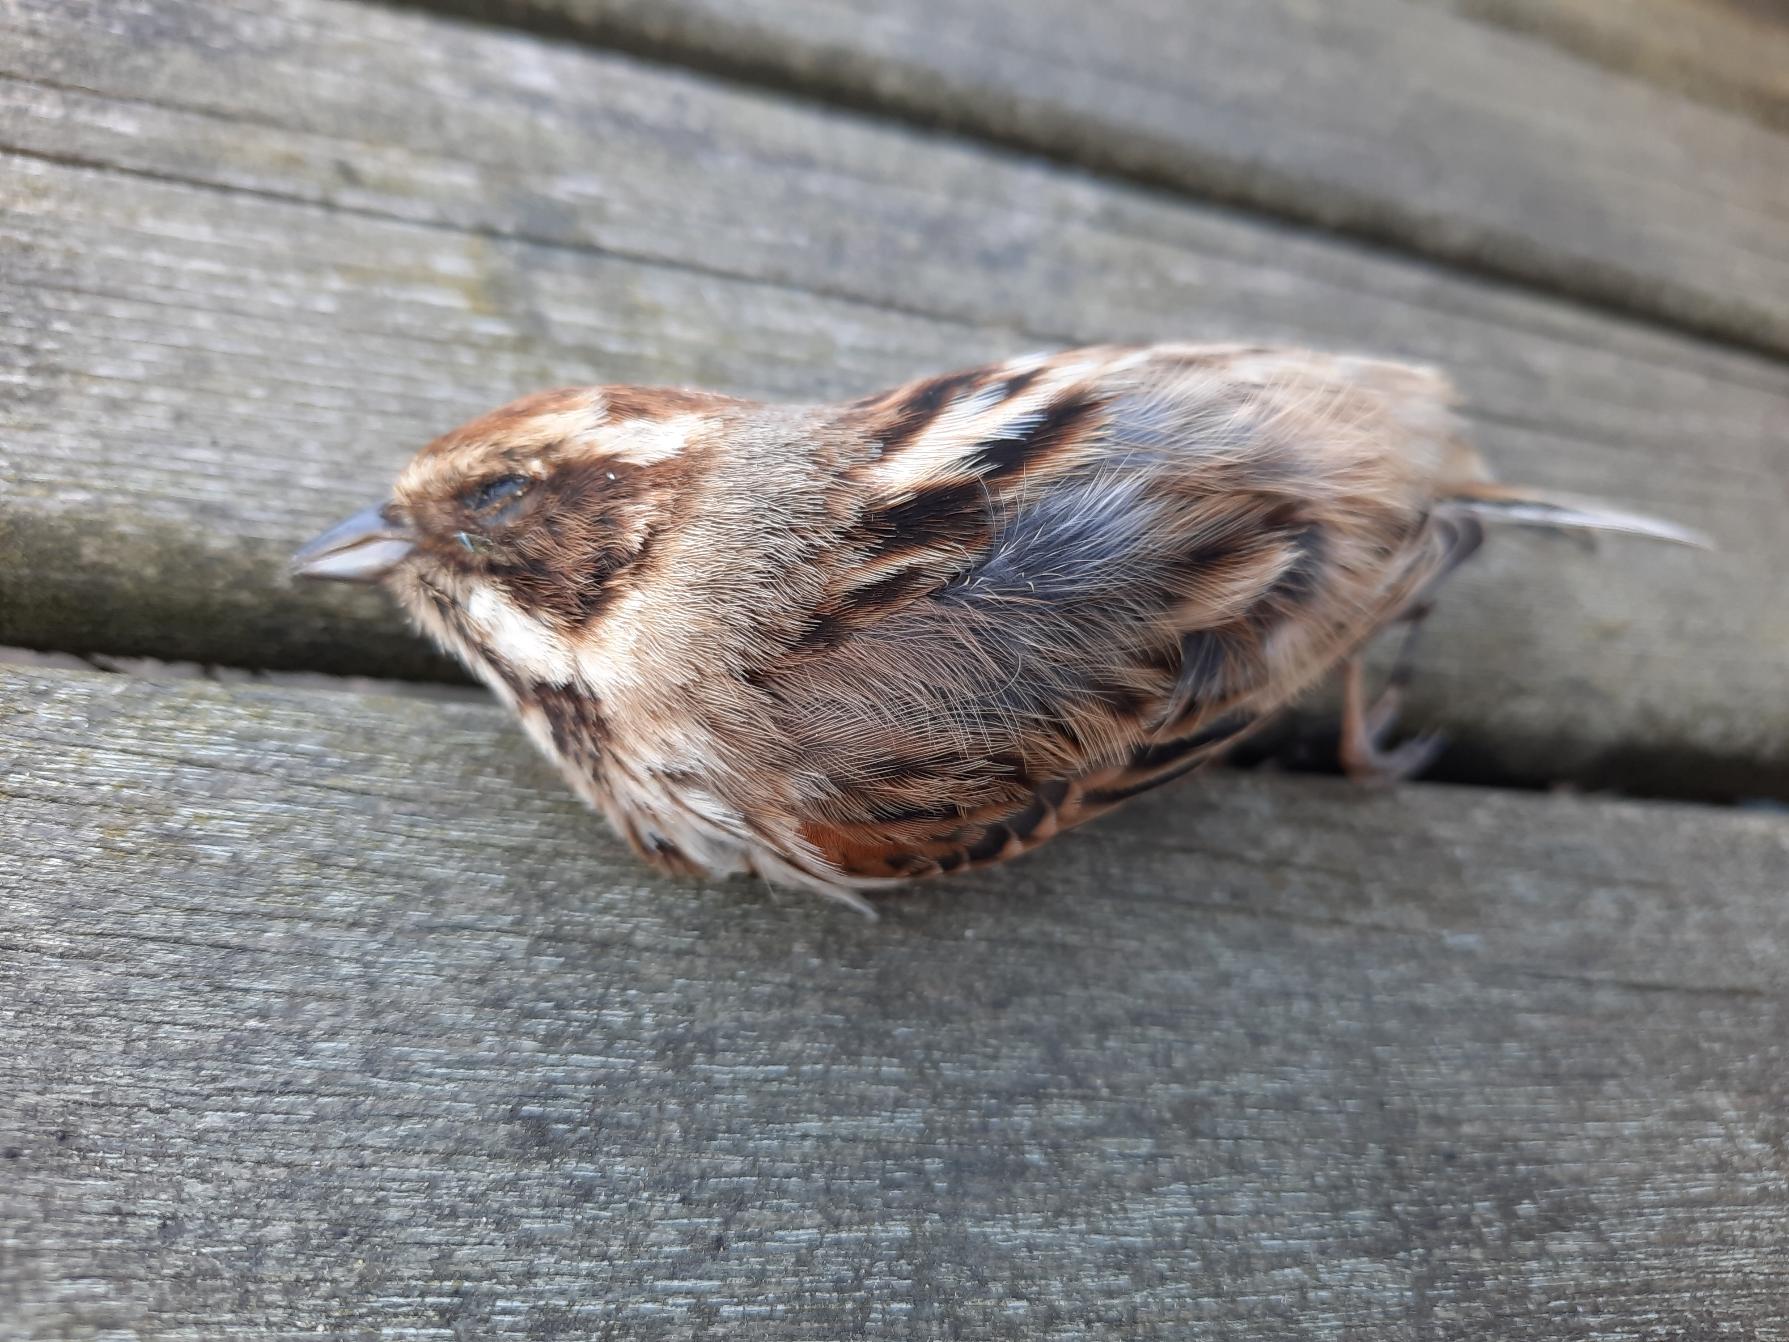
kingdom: Animalia
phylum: Chordata
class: Aves
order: Passeriformes
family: Emberizidae
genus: Emberiza
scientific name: Emberiza schoeniclus
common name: Rørspurv
